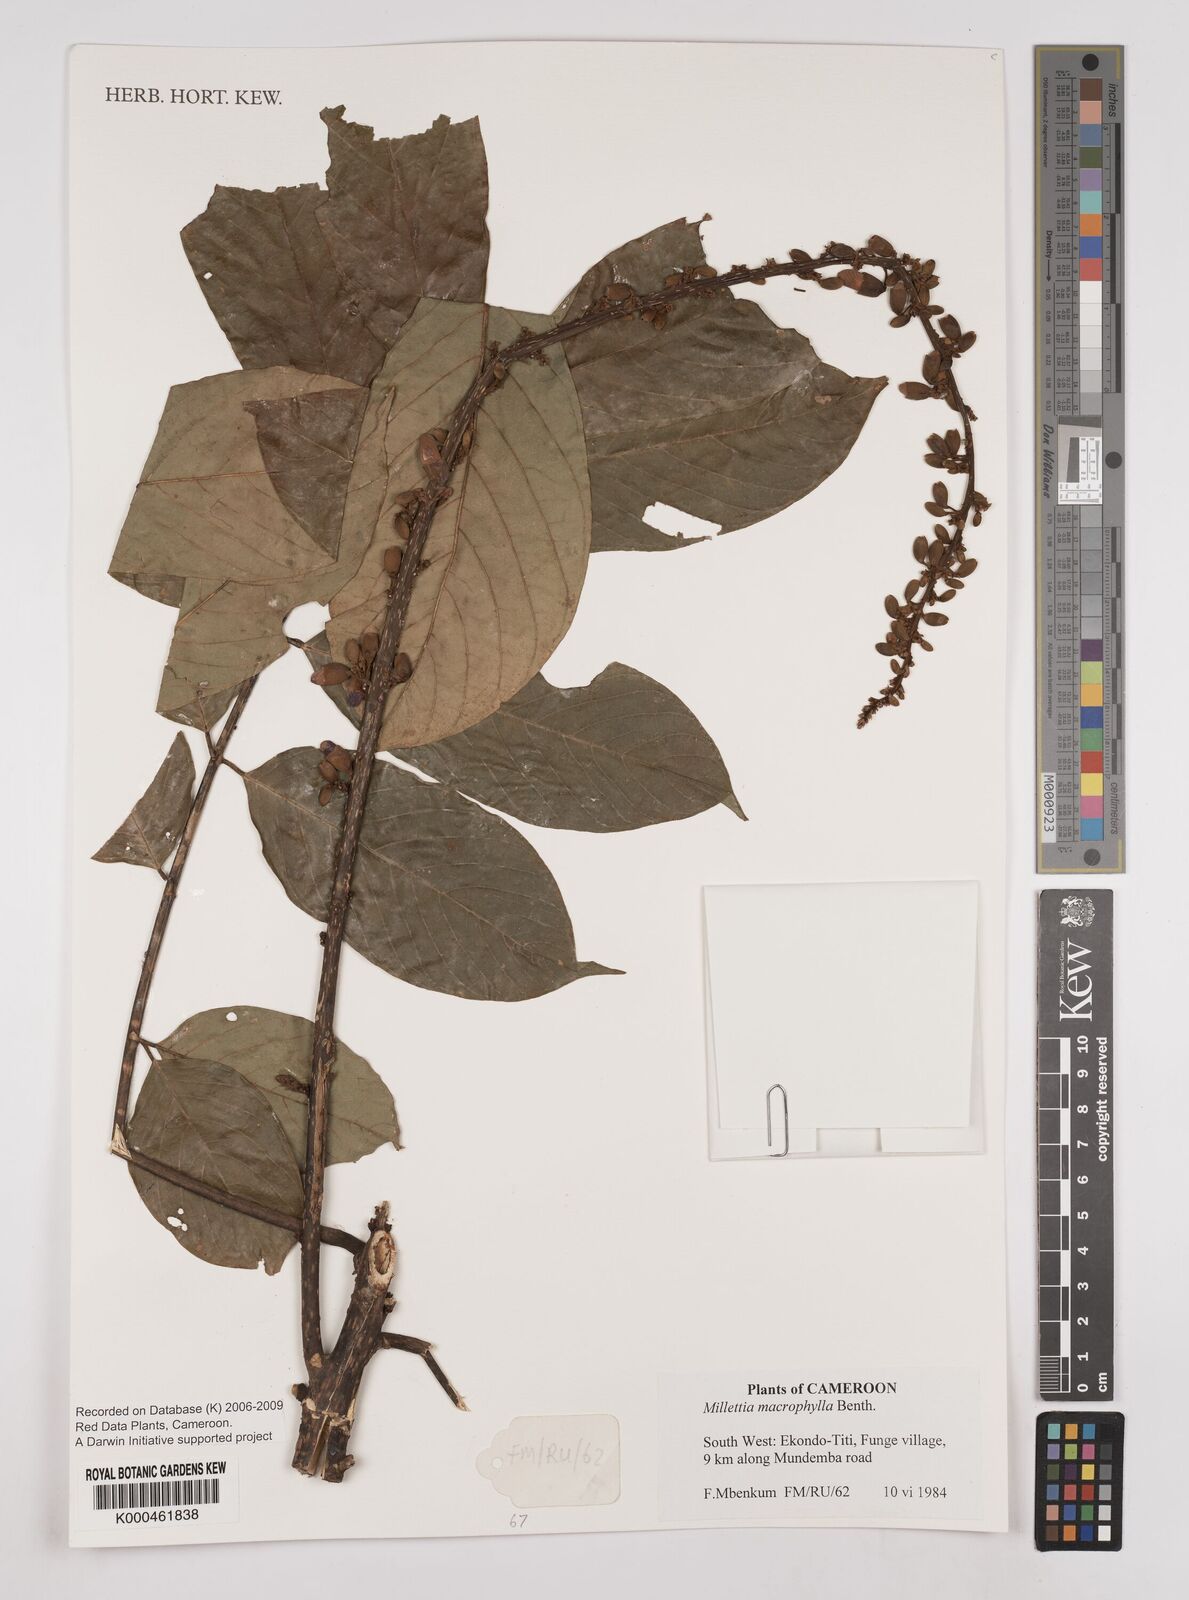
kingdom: Plantae
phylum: Tracheophyta
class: Magnoliopsida
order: Fabales
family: Fabaceae
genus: Millettia
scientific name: Millettia macrophylla
